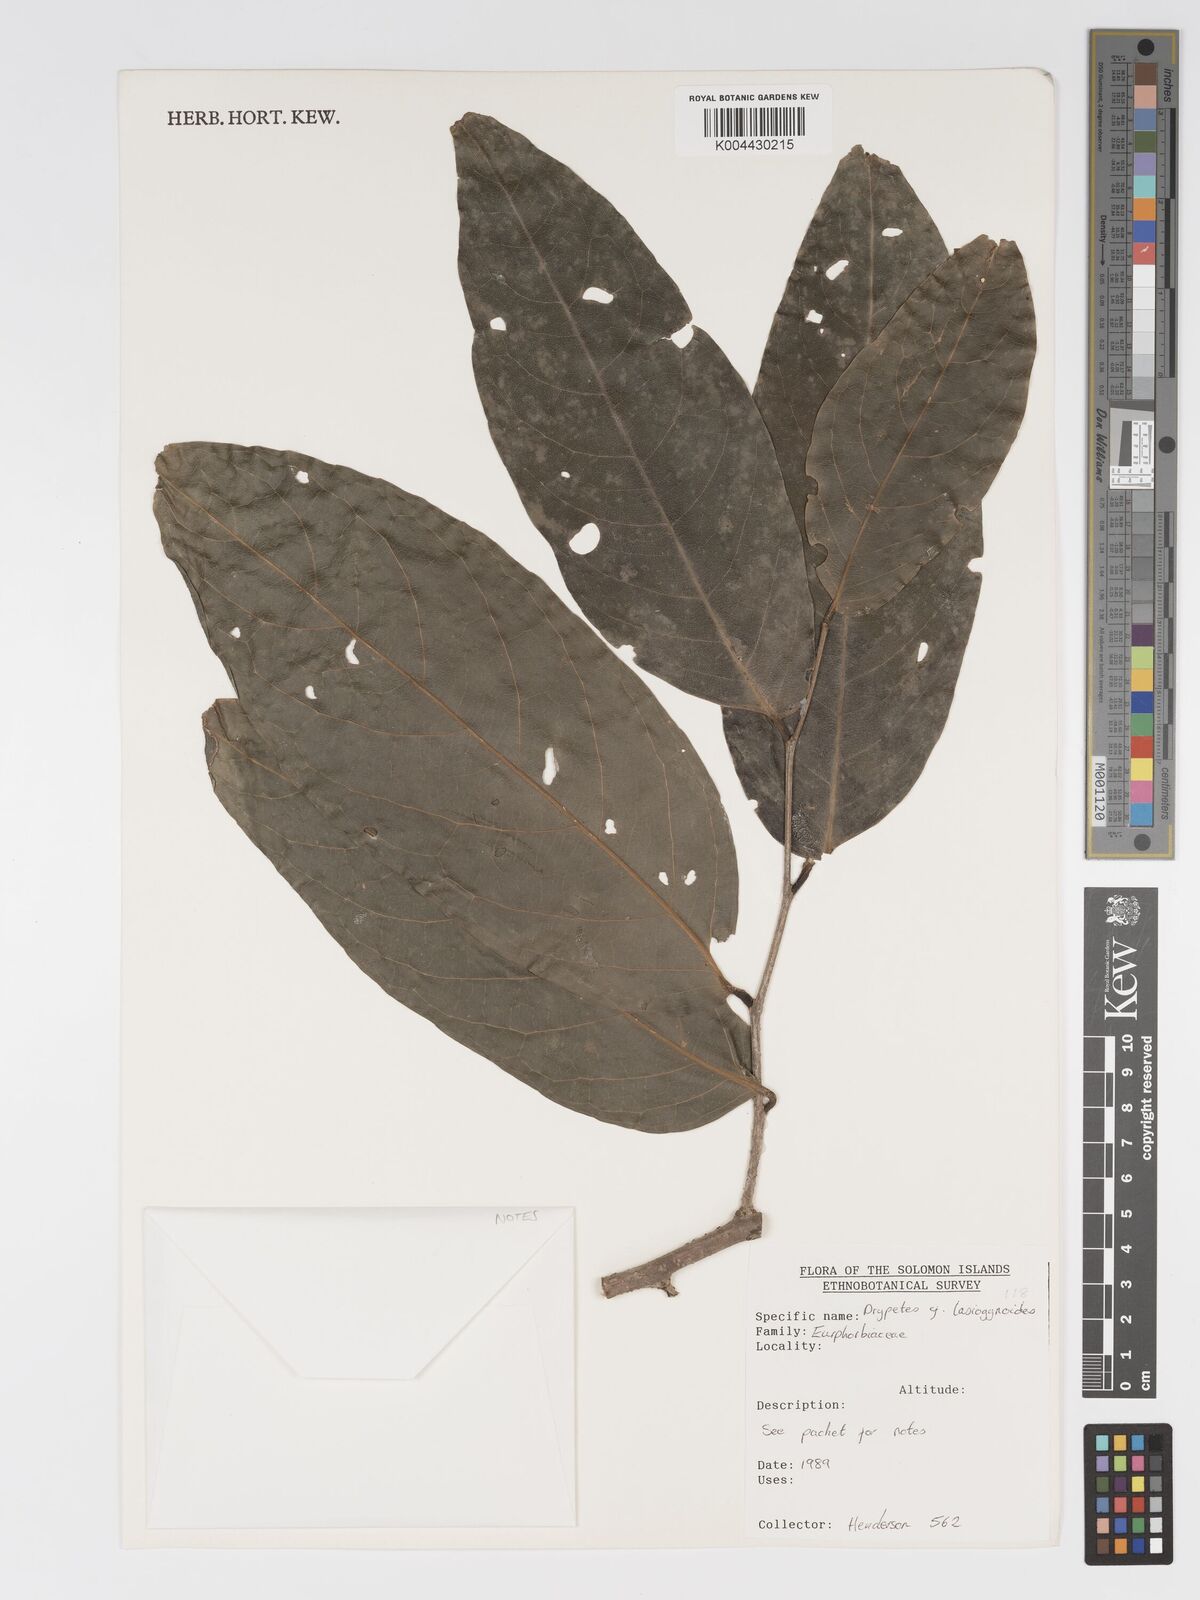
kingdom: Plantae
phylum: Tracheophyta
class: Magnoliopsida
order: Malpighiales
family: Putranjivaceae
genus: Drypetes
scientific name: Drypetes lasiogynoides
